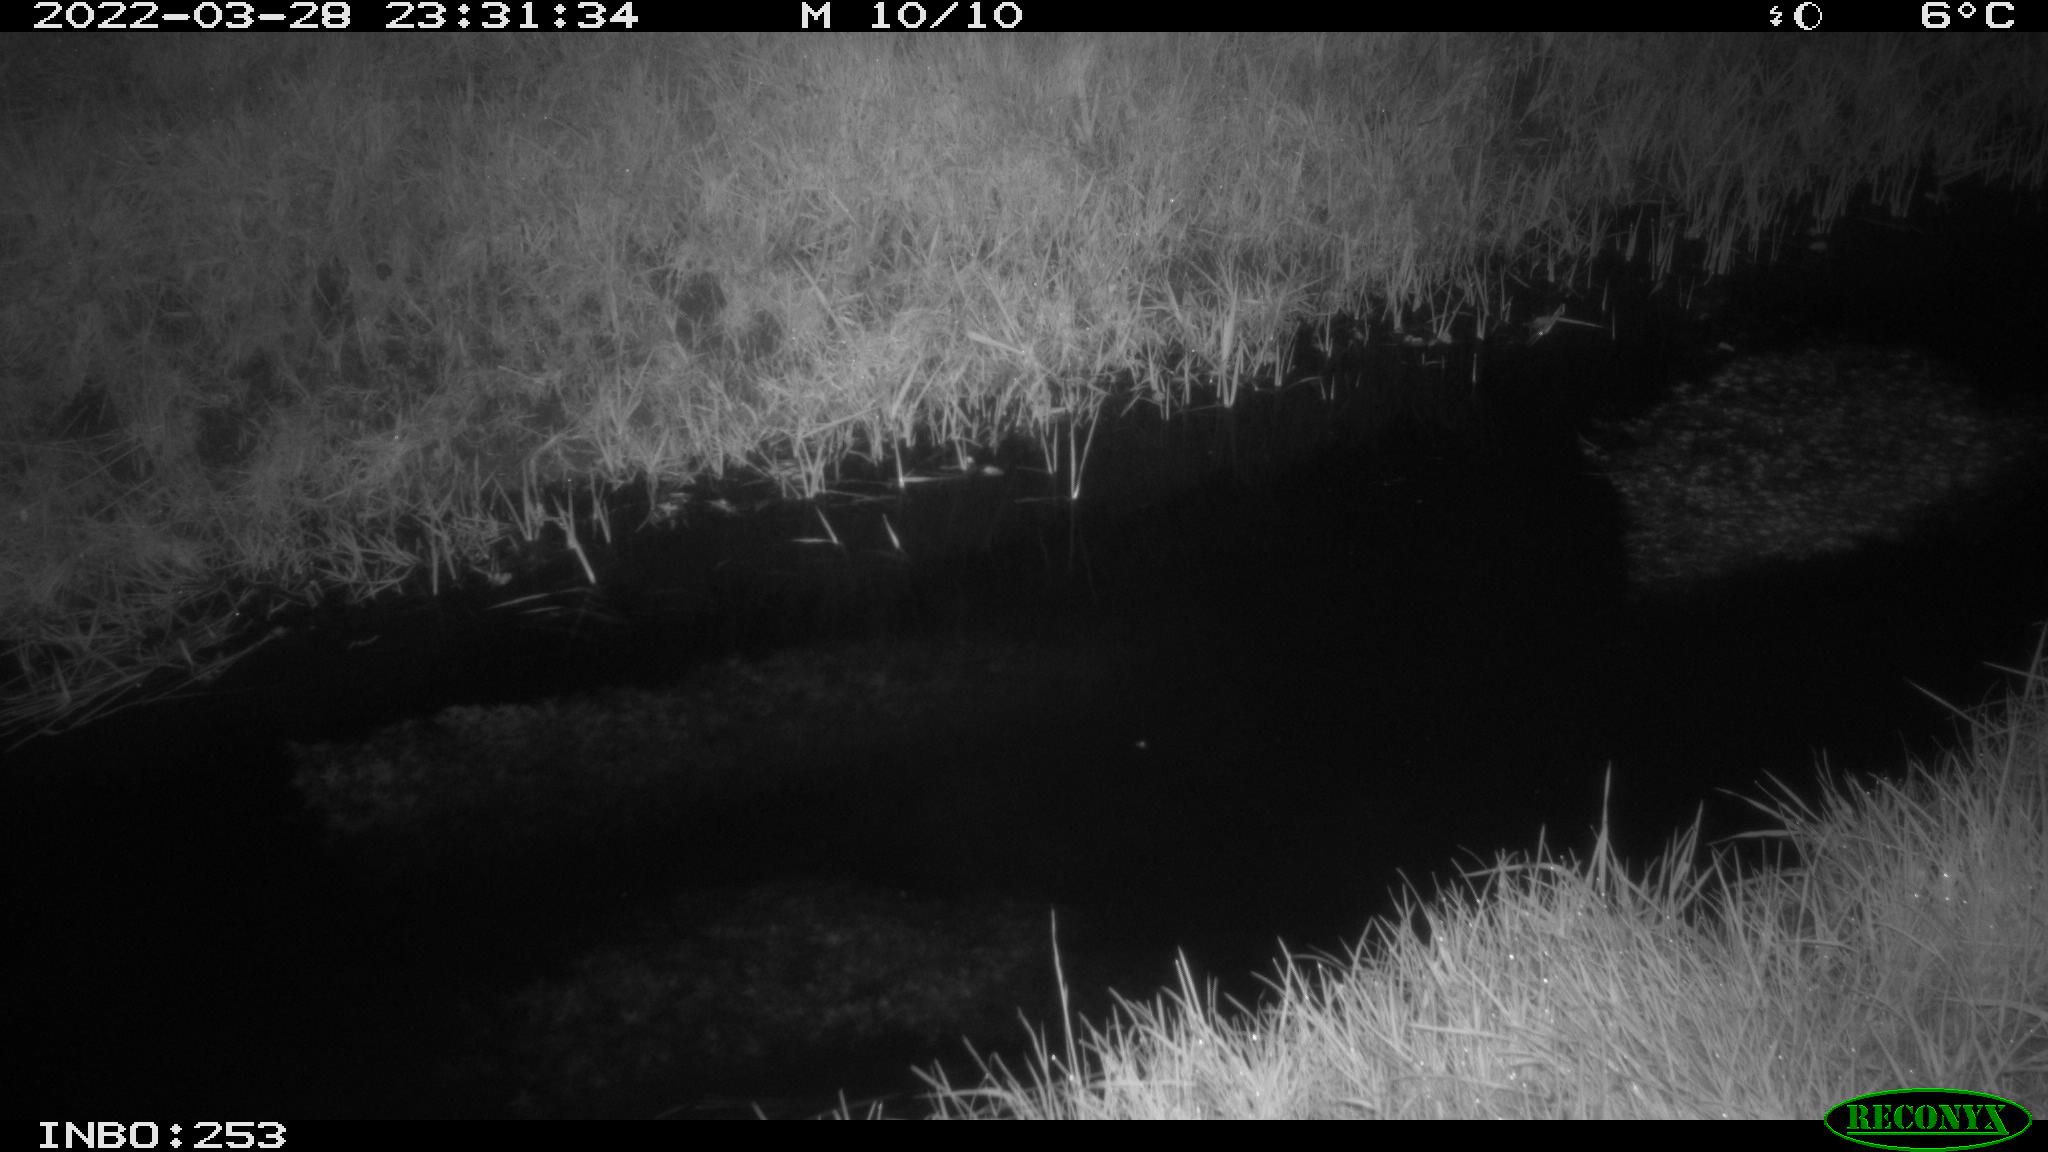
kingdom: Animalia
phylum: Chordata
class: Aves
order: Anseriformes
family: Anatidae
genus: Anas
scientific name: Anas platyrhynchos
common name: Mallard
